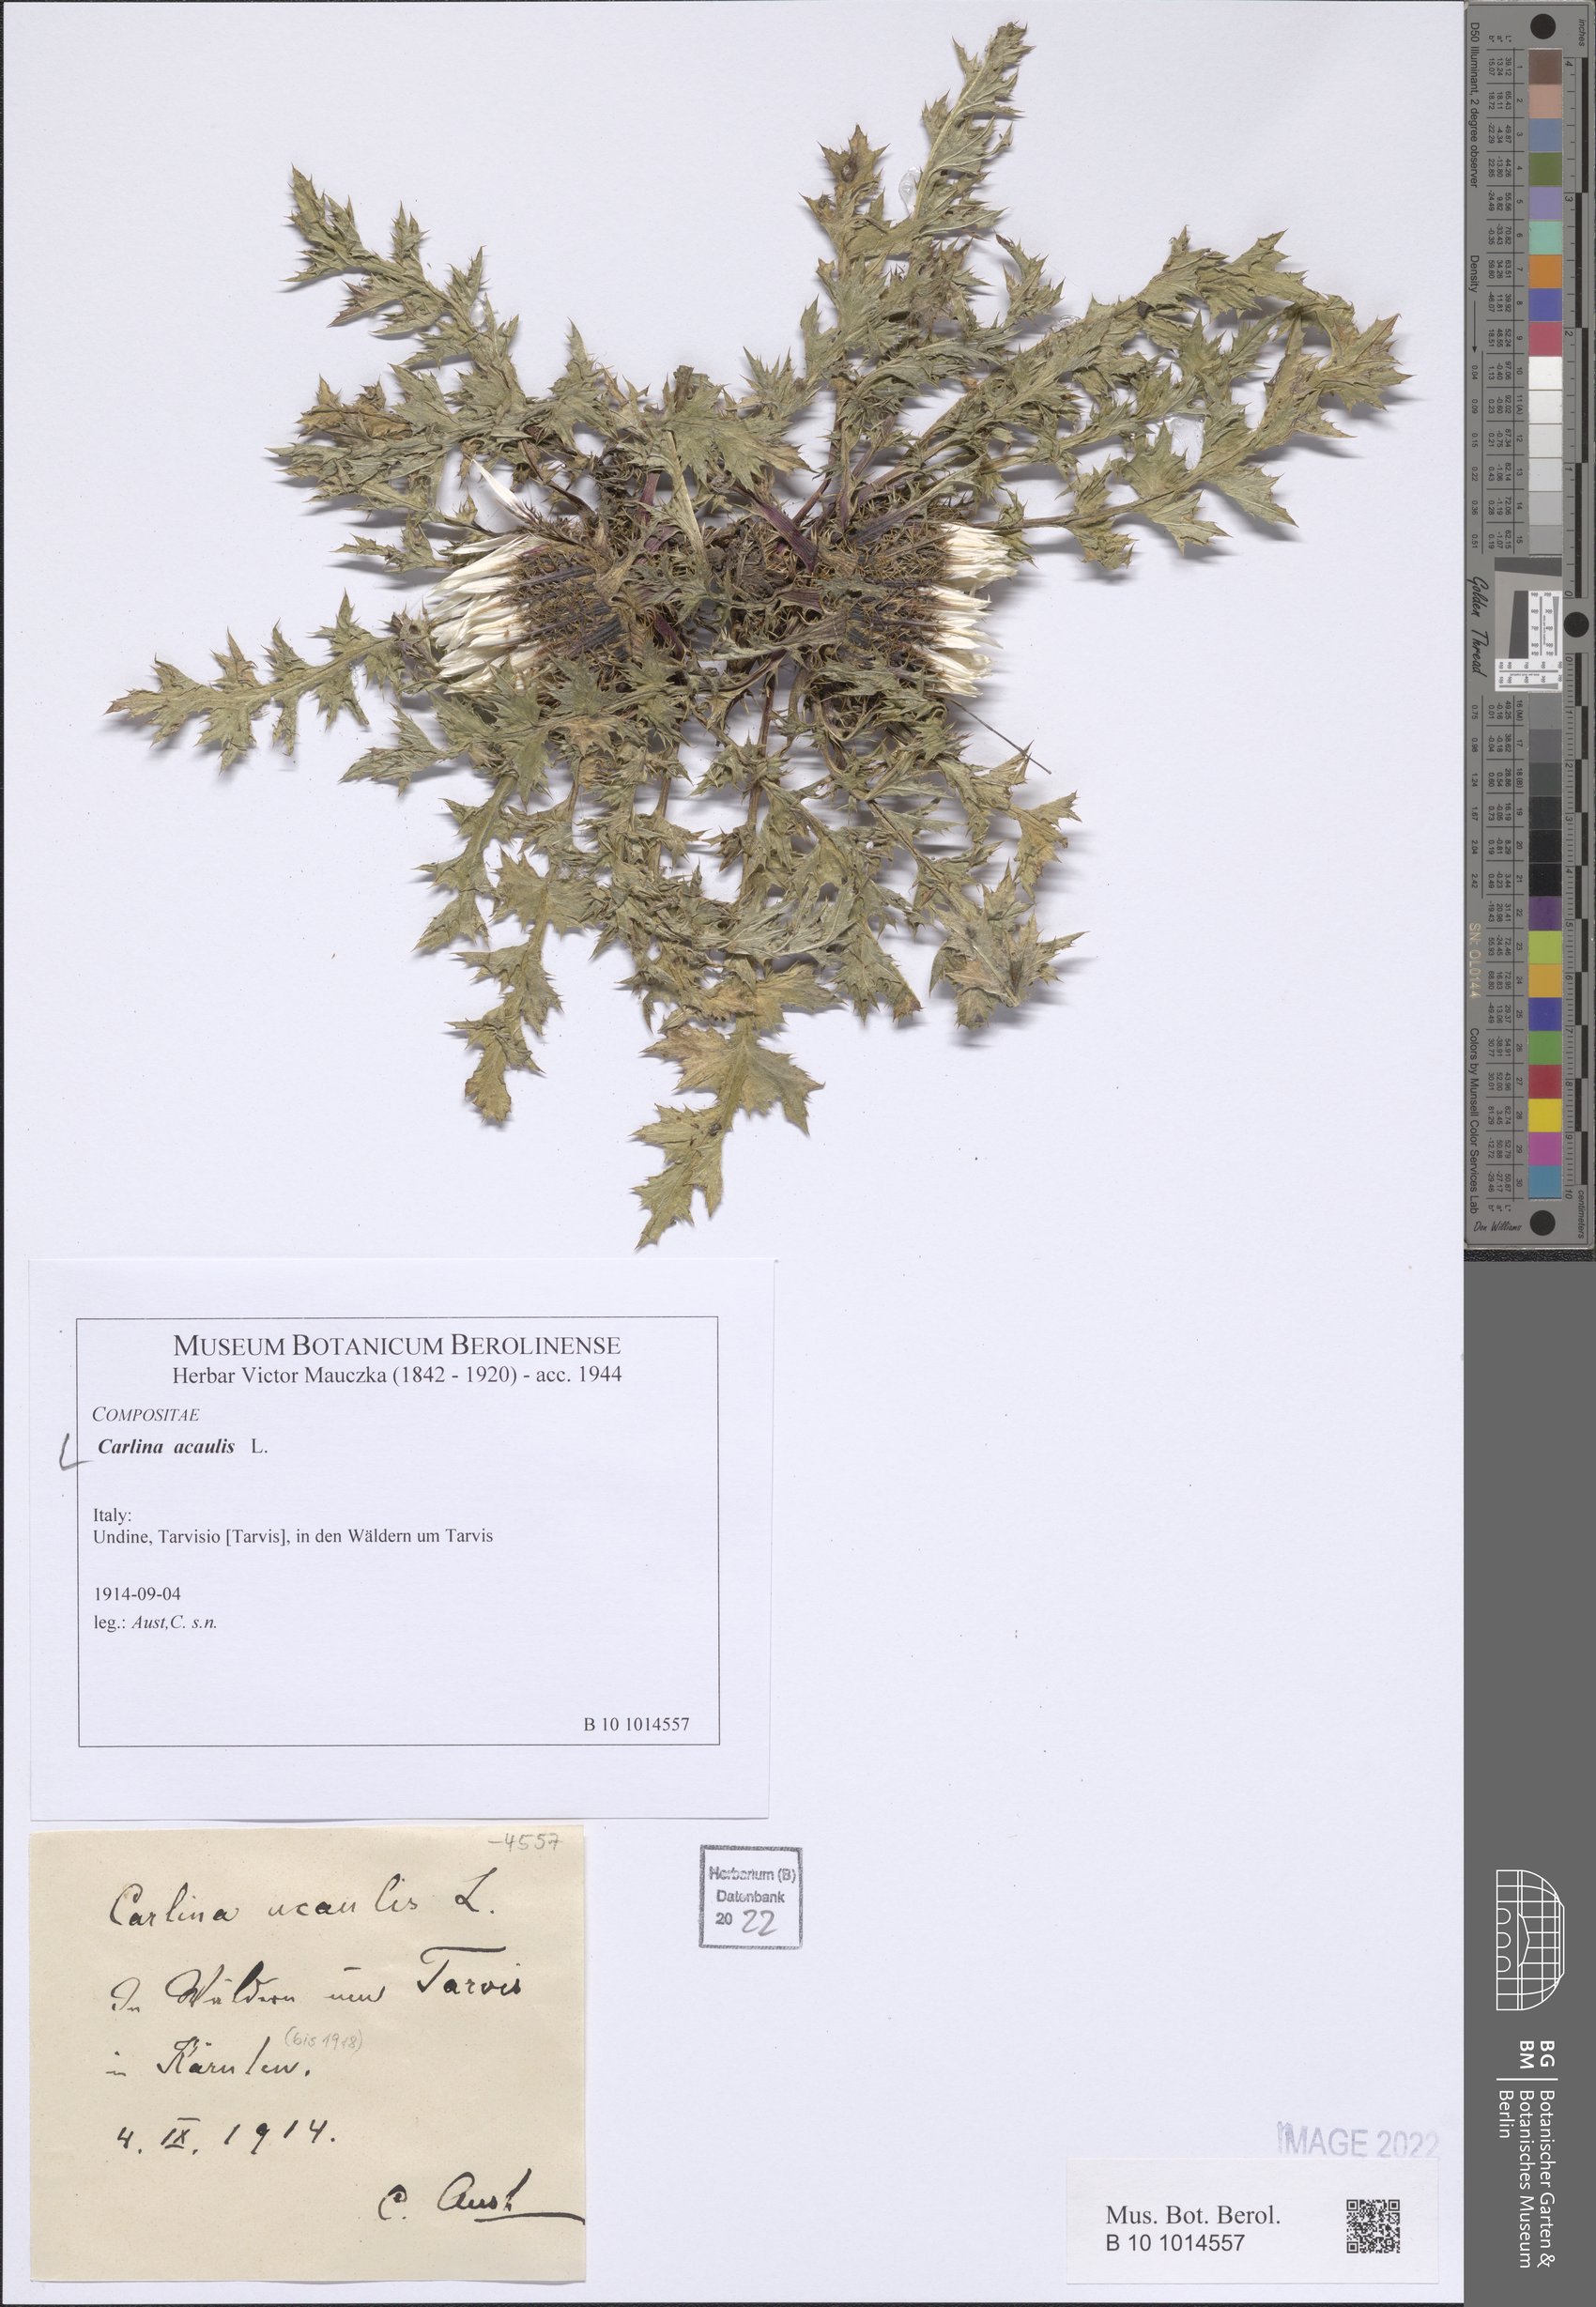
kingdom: Plantae
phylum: Tracheophyta
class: Magnoliopsida
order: Asterales
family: Asteraceae
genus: Carlina
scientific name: Carlina acaulis
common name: Stemless carline thistle
